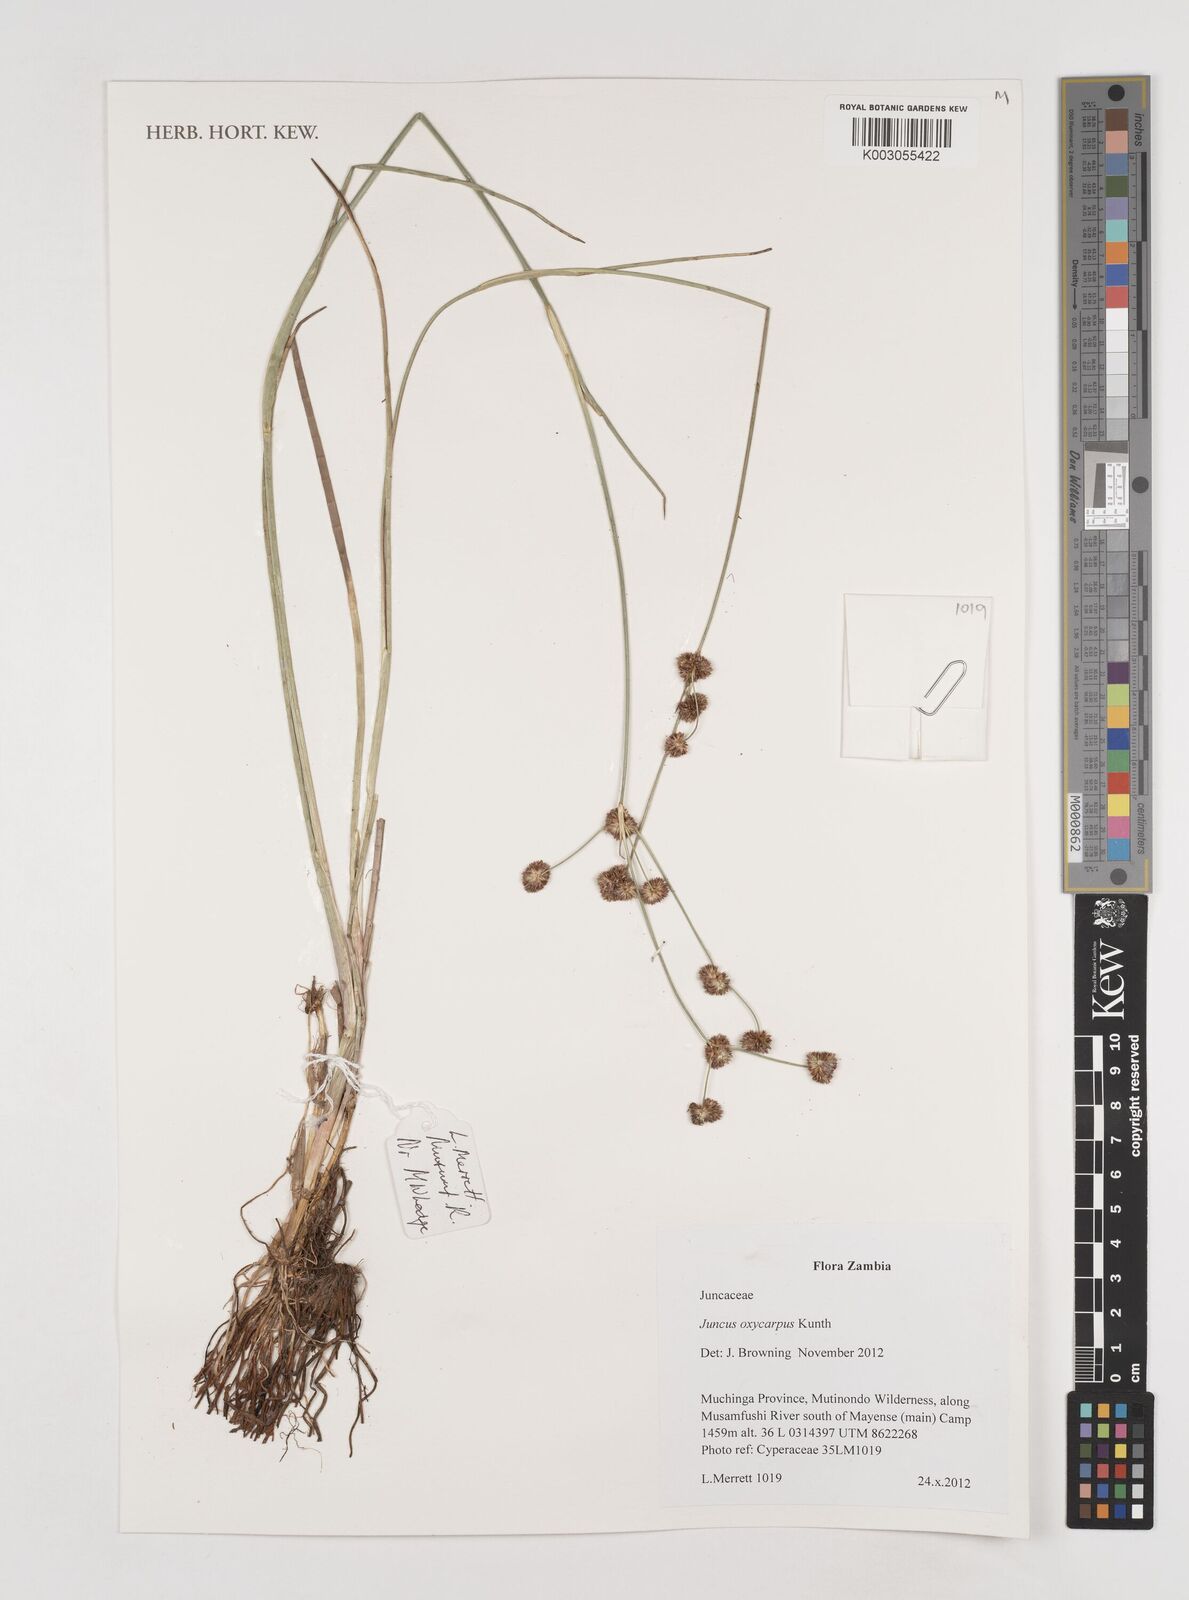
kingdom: Plantae
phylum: Tracheophyta
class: Liliopsida
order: Poales
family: Juncaceae
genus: Juncus
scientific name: Juncus oxycarpus
